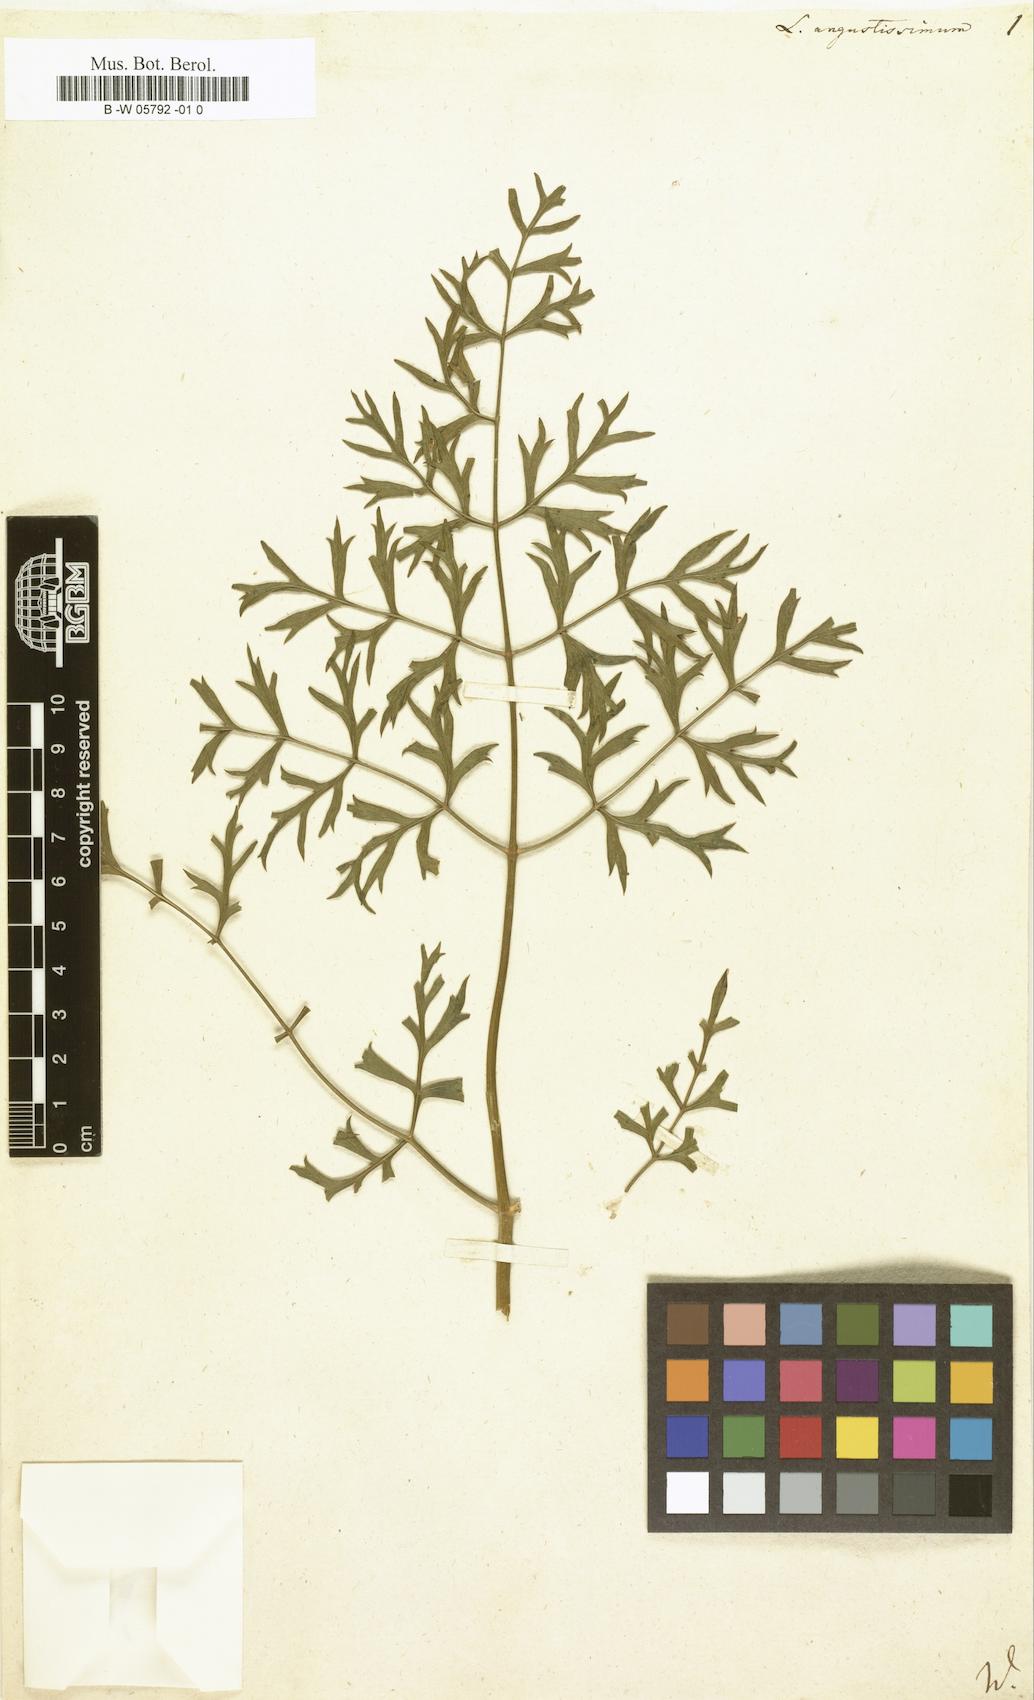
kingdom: Plantae
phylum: Tracheophyta
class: Magnoliopsida
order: Apiales
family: Apiaceae
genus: Laserpitium
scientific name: Laserpitium gallicum
